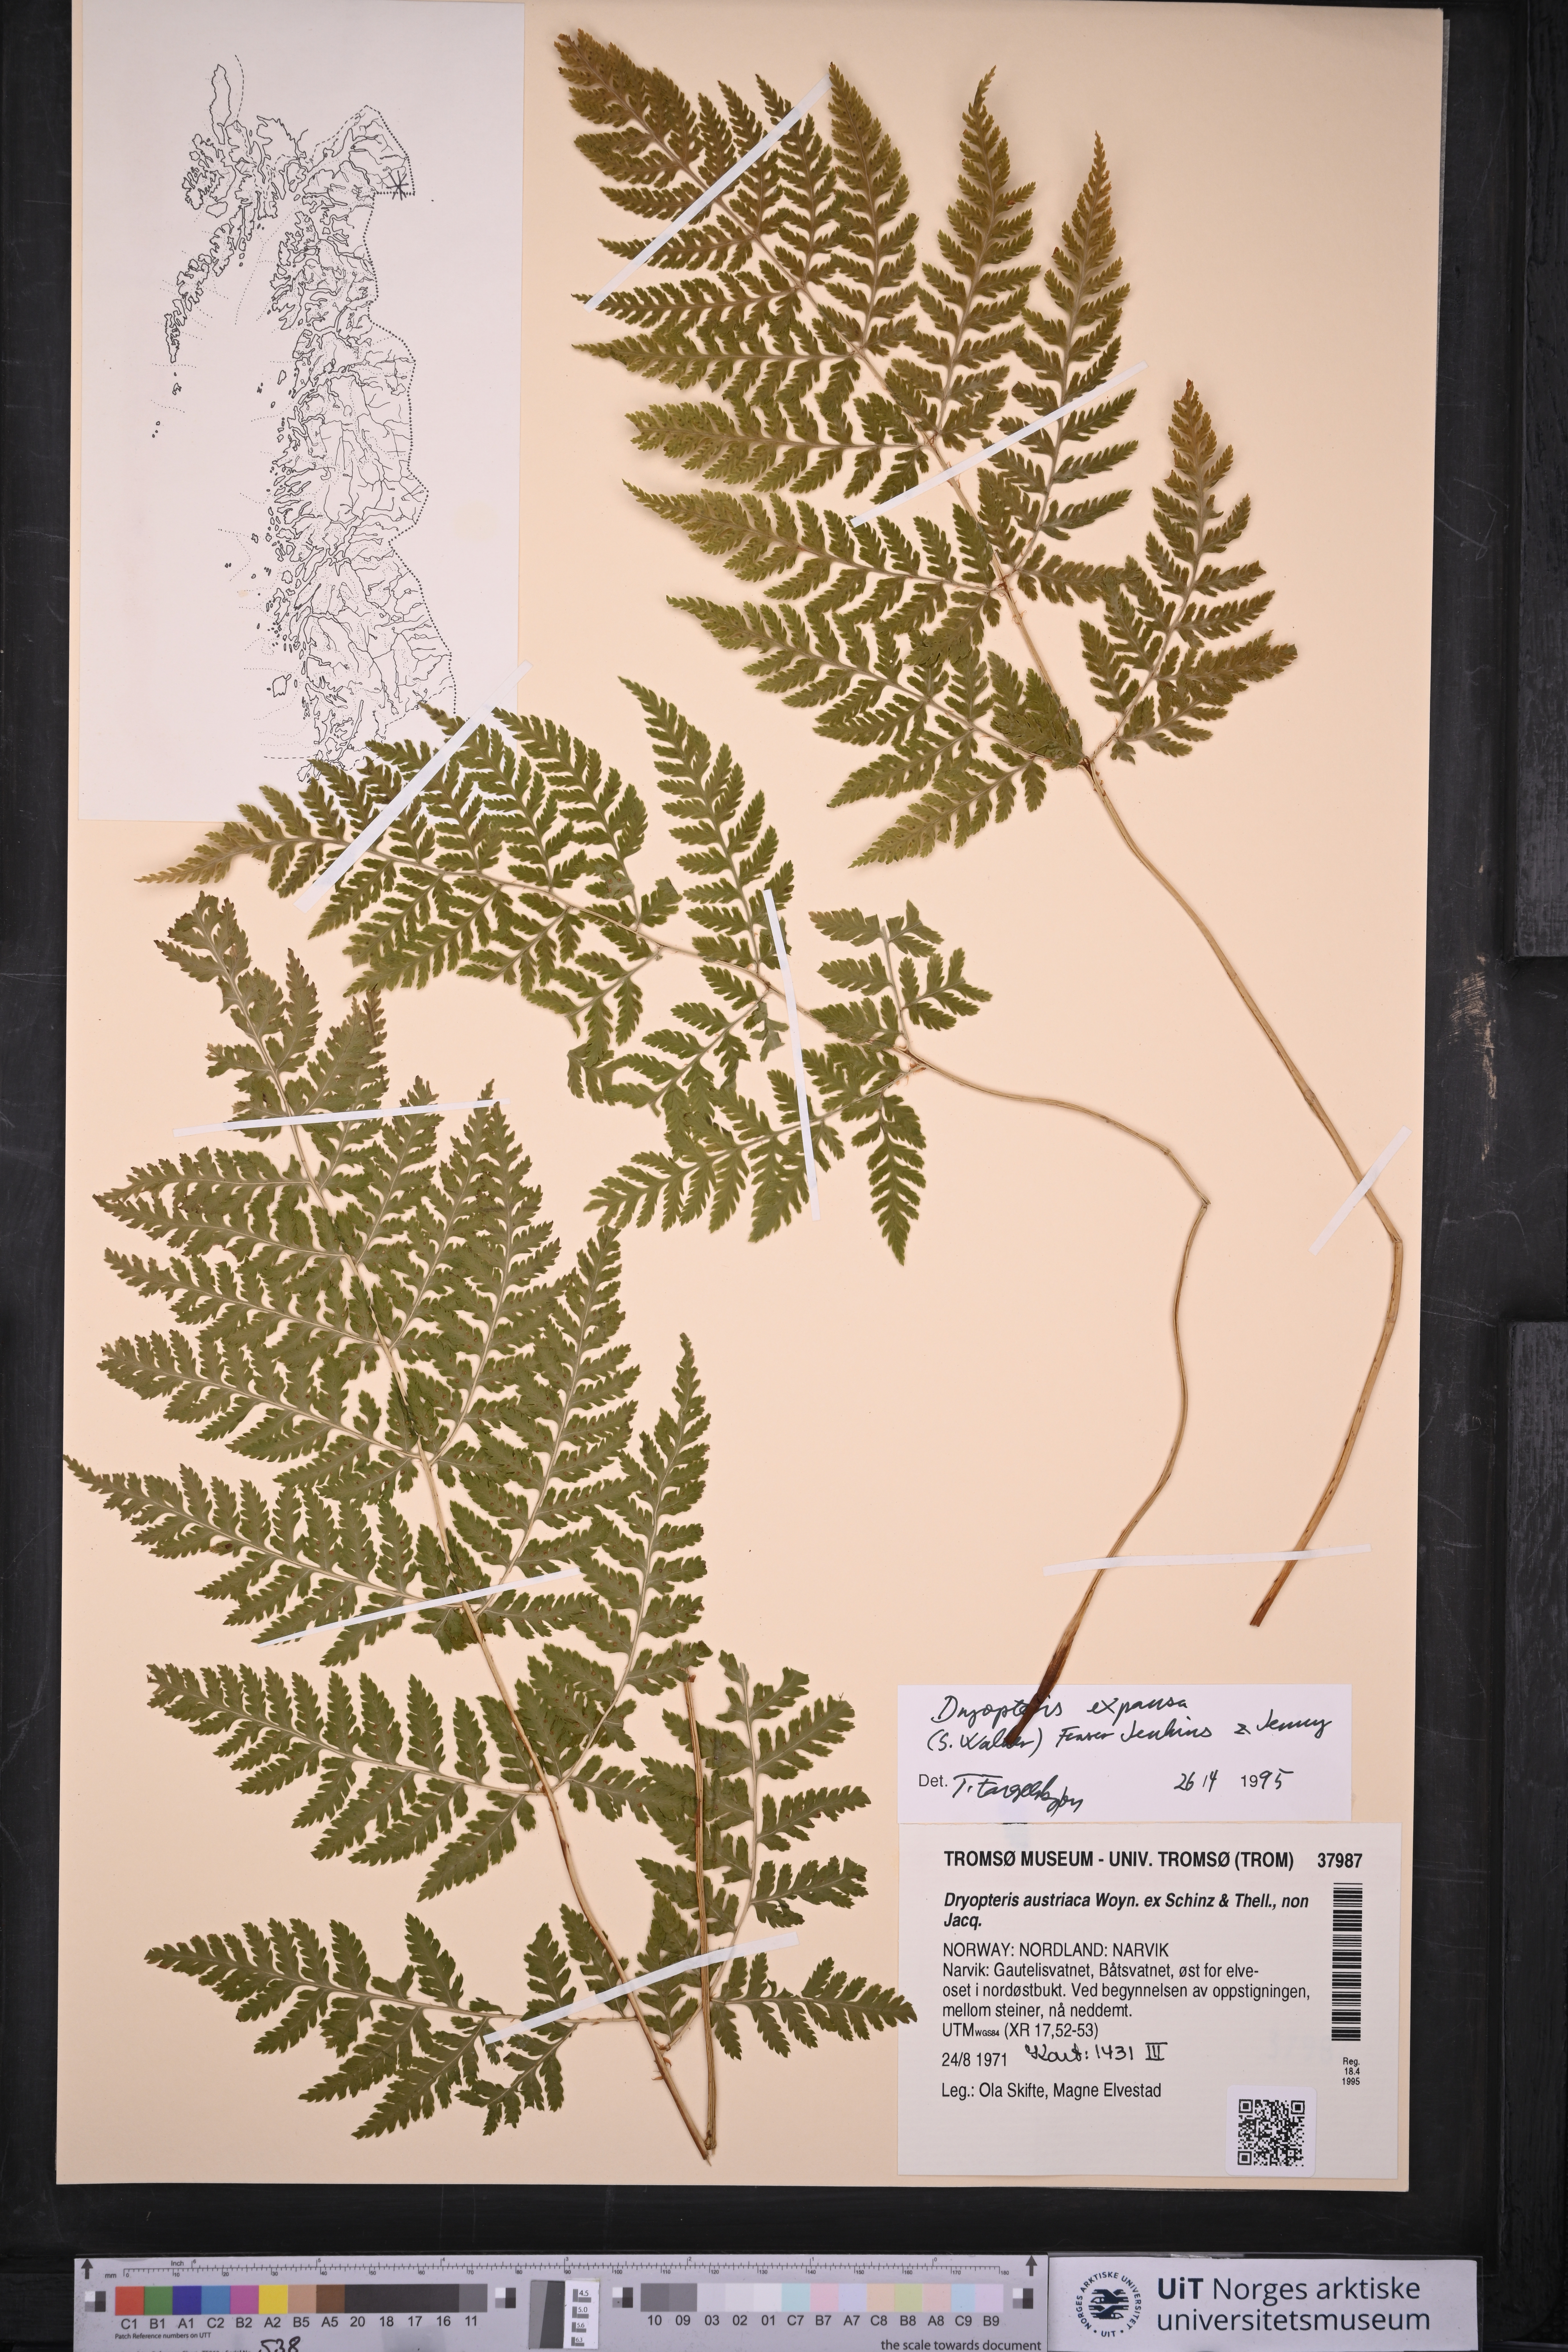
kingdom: Plantae
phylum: Tracheophyta
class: Polypodiopsida
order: Polypodiales
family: Dryopteridaceae
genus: Dryopteris
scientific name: Dryopteris expansa
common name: Northern buckler fern
